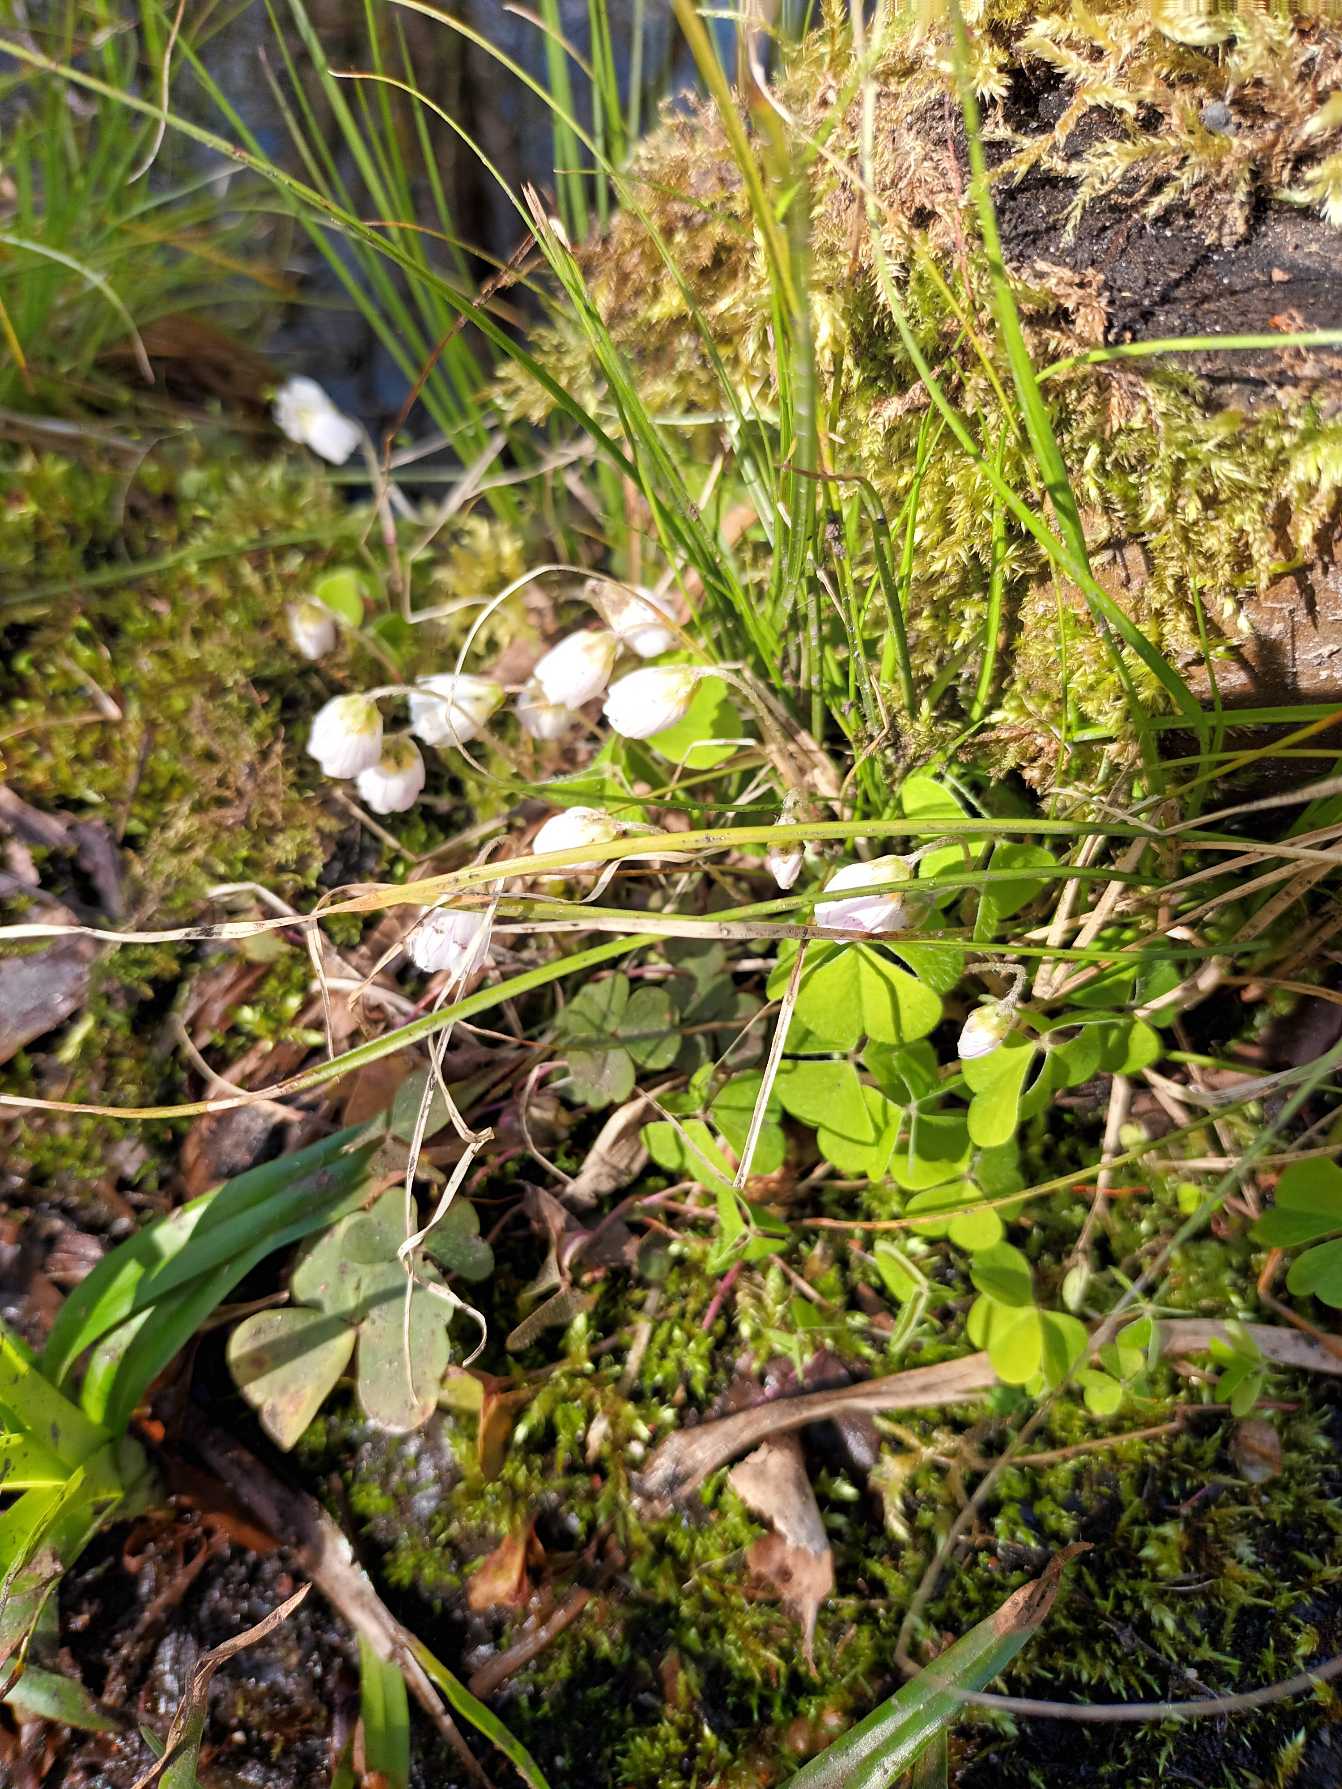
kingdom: Plantae
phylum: Tracheophyta
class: Magnoliopsida
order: Oxalidales
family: Oxalidaceae
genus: Oxalis
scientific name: Oxalis acetosella
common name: Skovsyre
